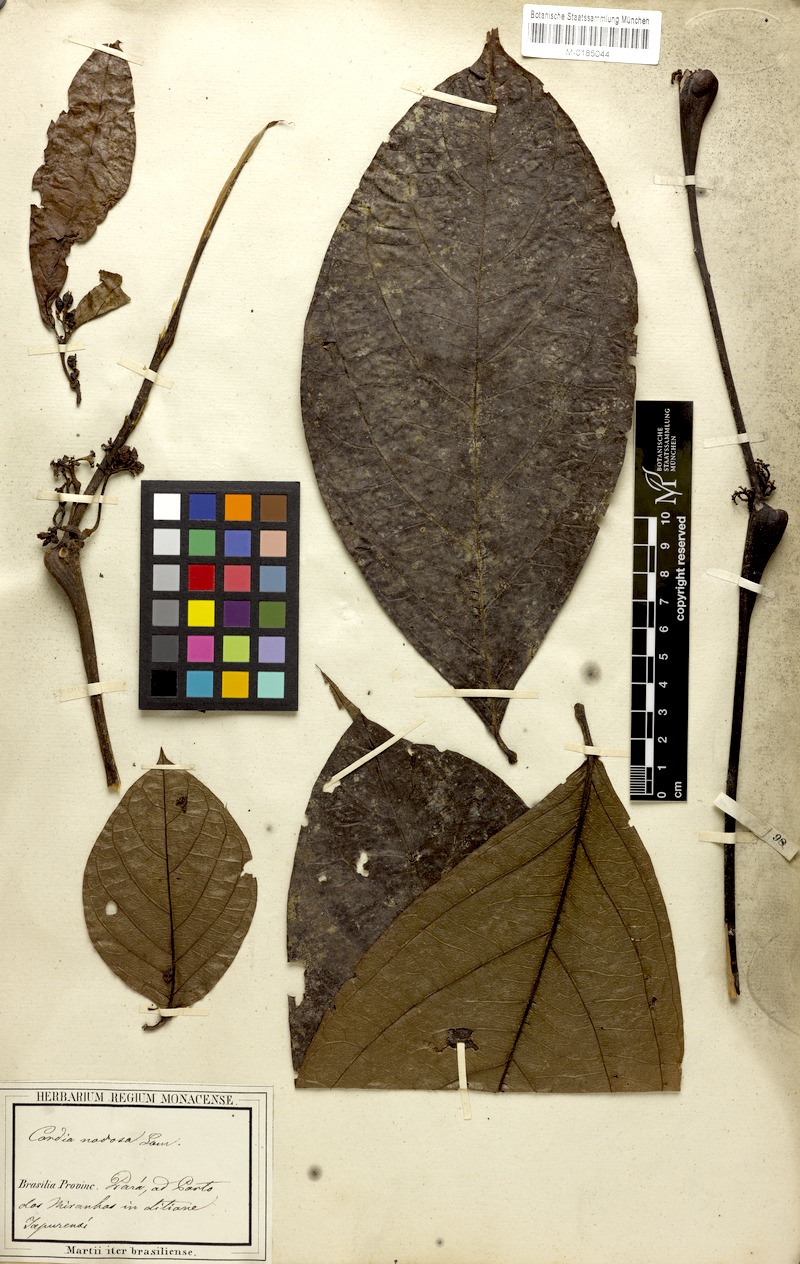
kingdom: Plantae
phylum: Tracheophyta
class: Magnoliopsida
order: Boraginales
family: Cordiaceae
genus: Cordia
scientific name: Cordia nodosa
